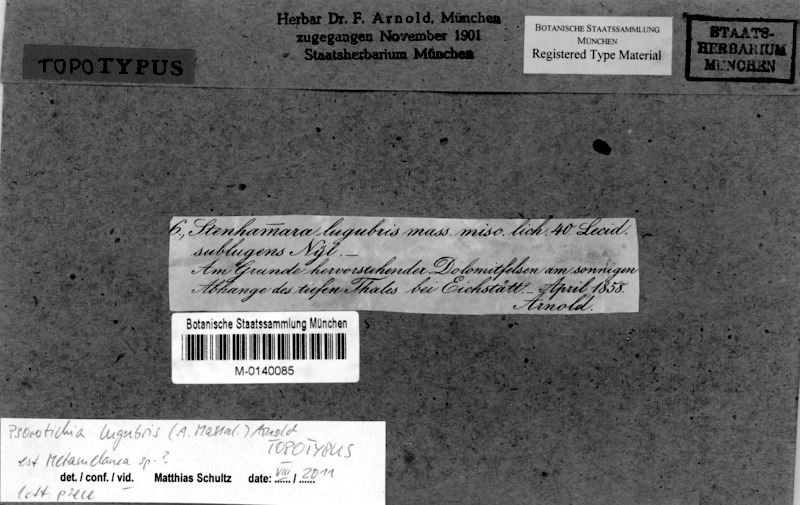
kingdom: Fungi
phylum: Ascomycota
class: Lecanoromycetes
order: Schaereriales
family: Schaereriaceae
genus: Ropalospora
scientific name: Ropalospora lugubris
